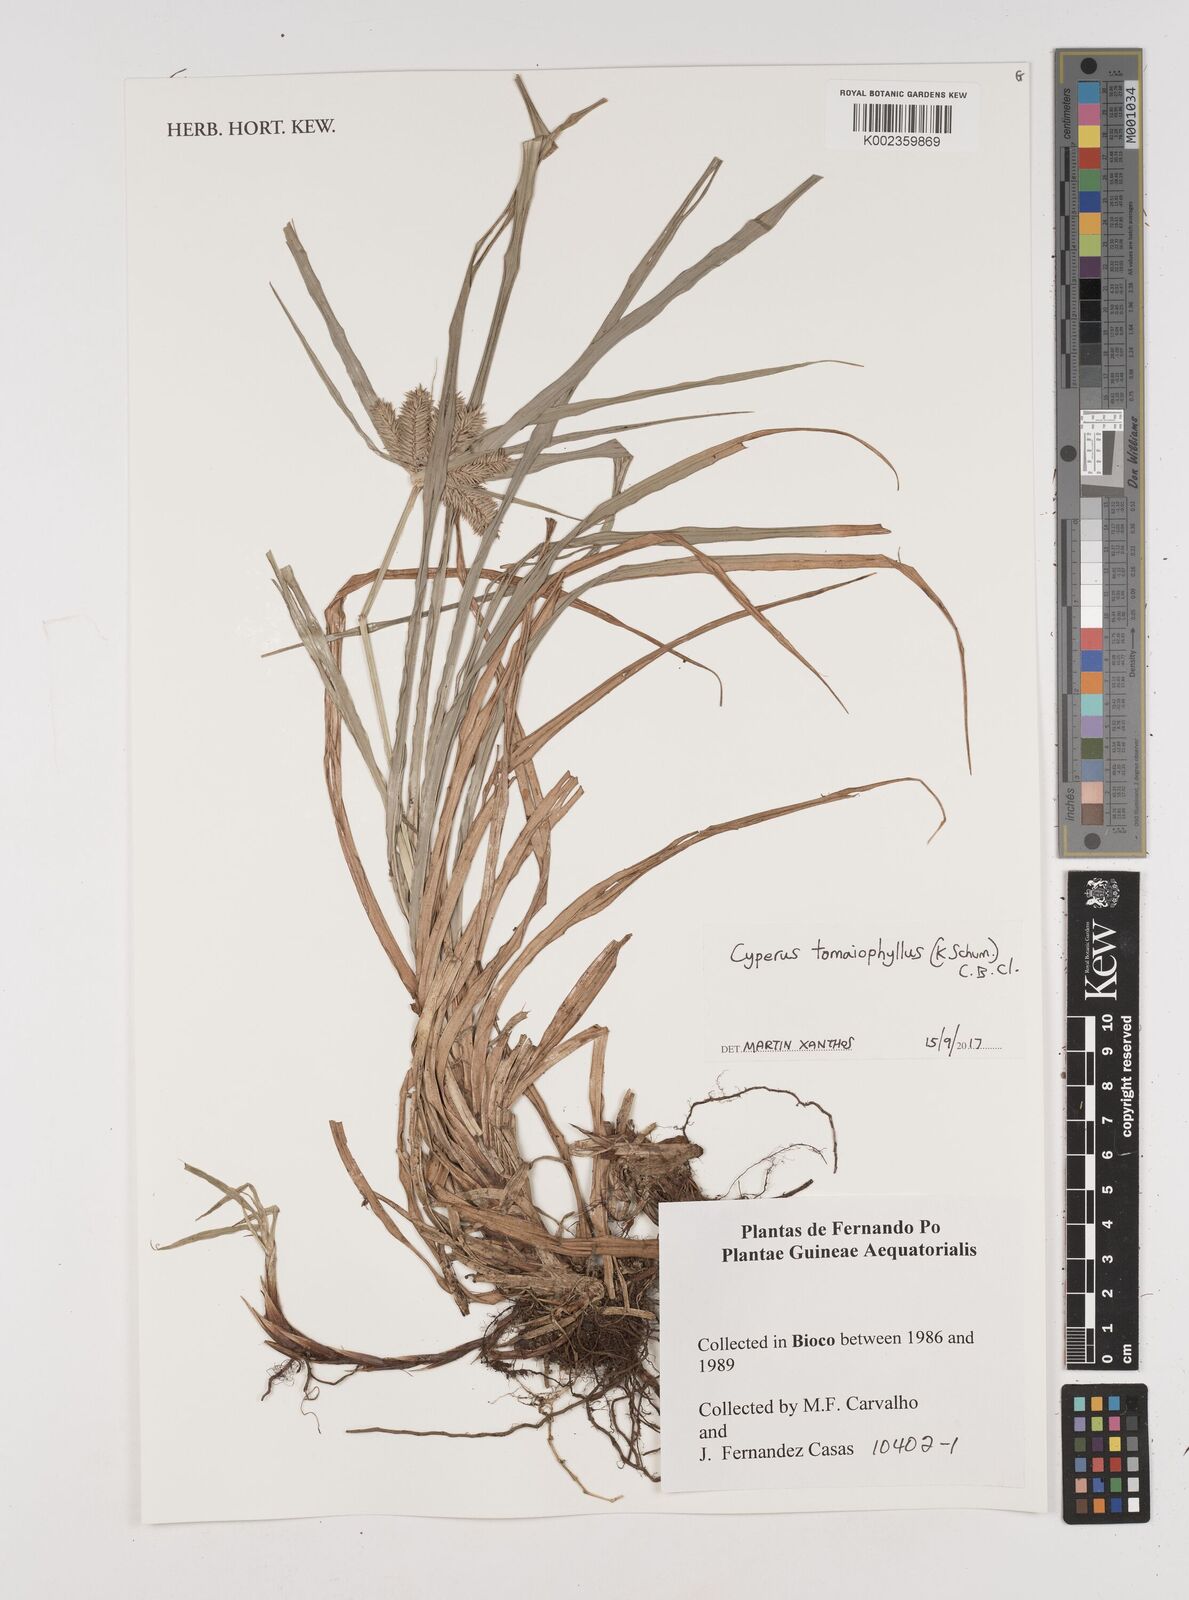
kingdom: Plantae
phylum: Tracheophyta
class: Liliopsida
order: Poales
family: Cyperaceae
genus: Cyperus
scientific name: Cyperus tomaiophyllus
